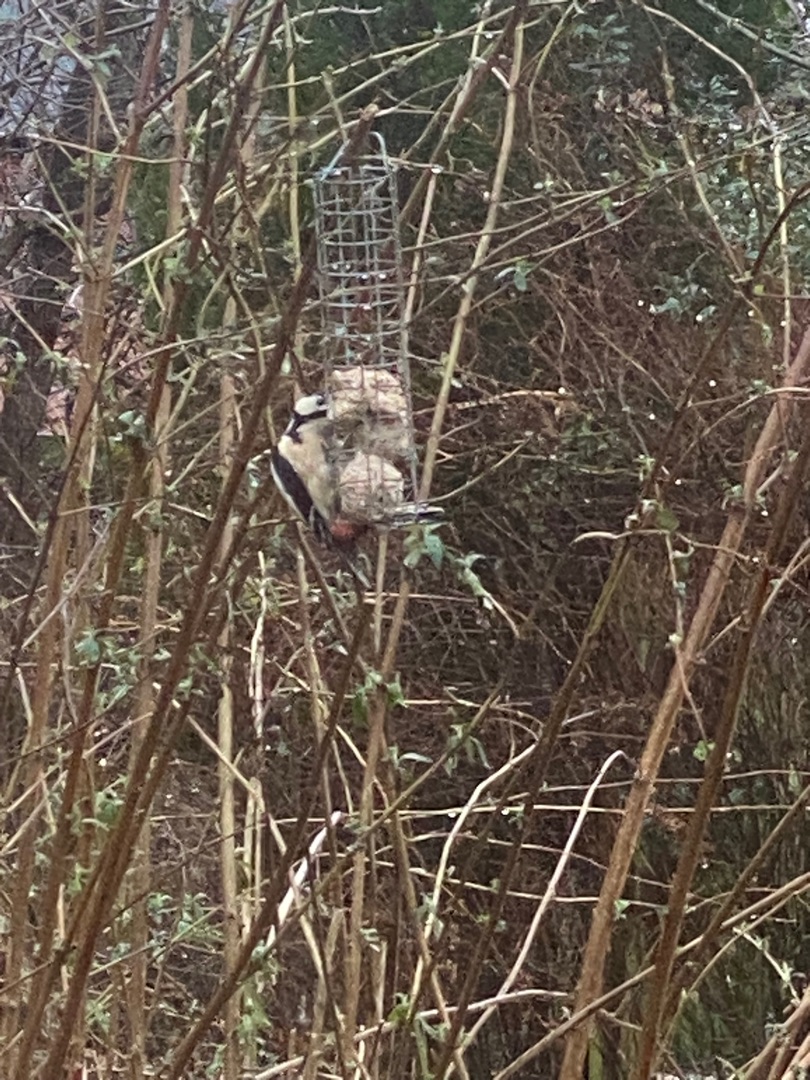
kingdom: Animalia
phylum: Chordata
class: Aves
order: Piciformes
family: Picidae
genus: Dendrocopos
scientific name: Dendrocopos major
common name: Stor flagspætte
